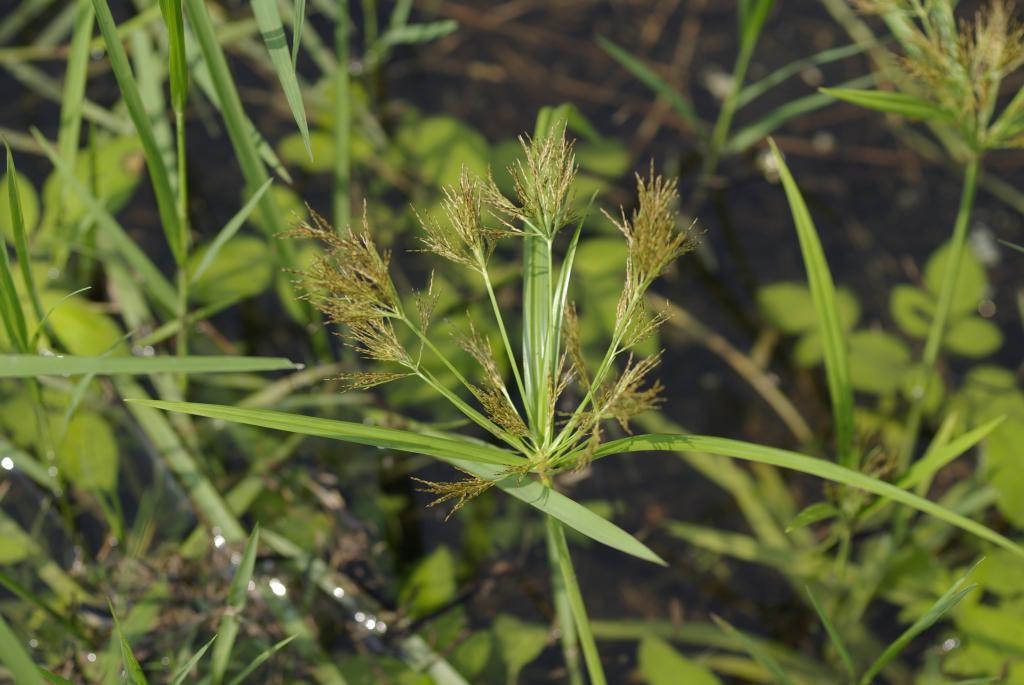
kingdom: Plantae
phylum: Tracheophyta
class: Liliopsida
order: Poales
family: Cyperaceae
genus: Cyperus
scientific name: Cyperus distans
